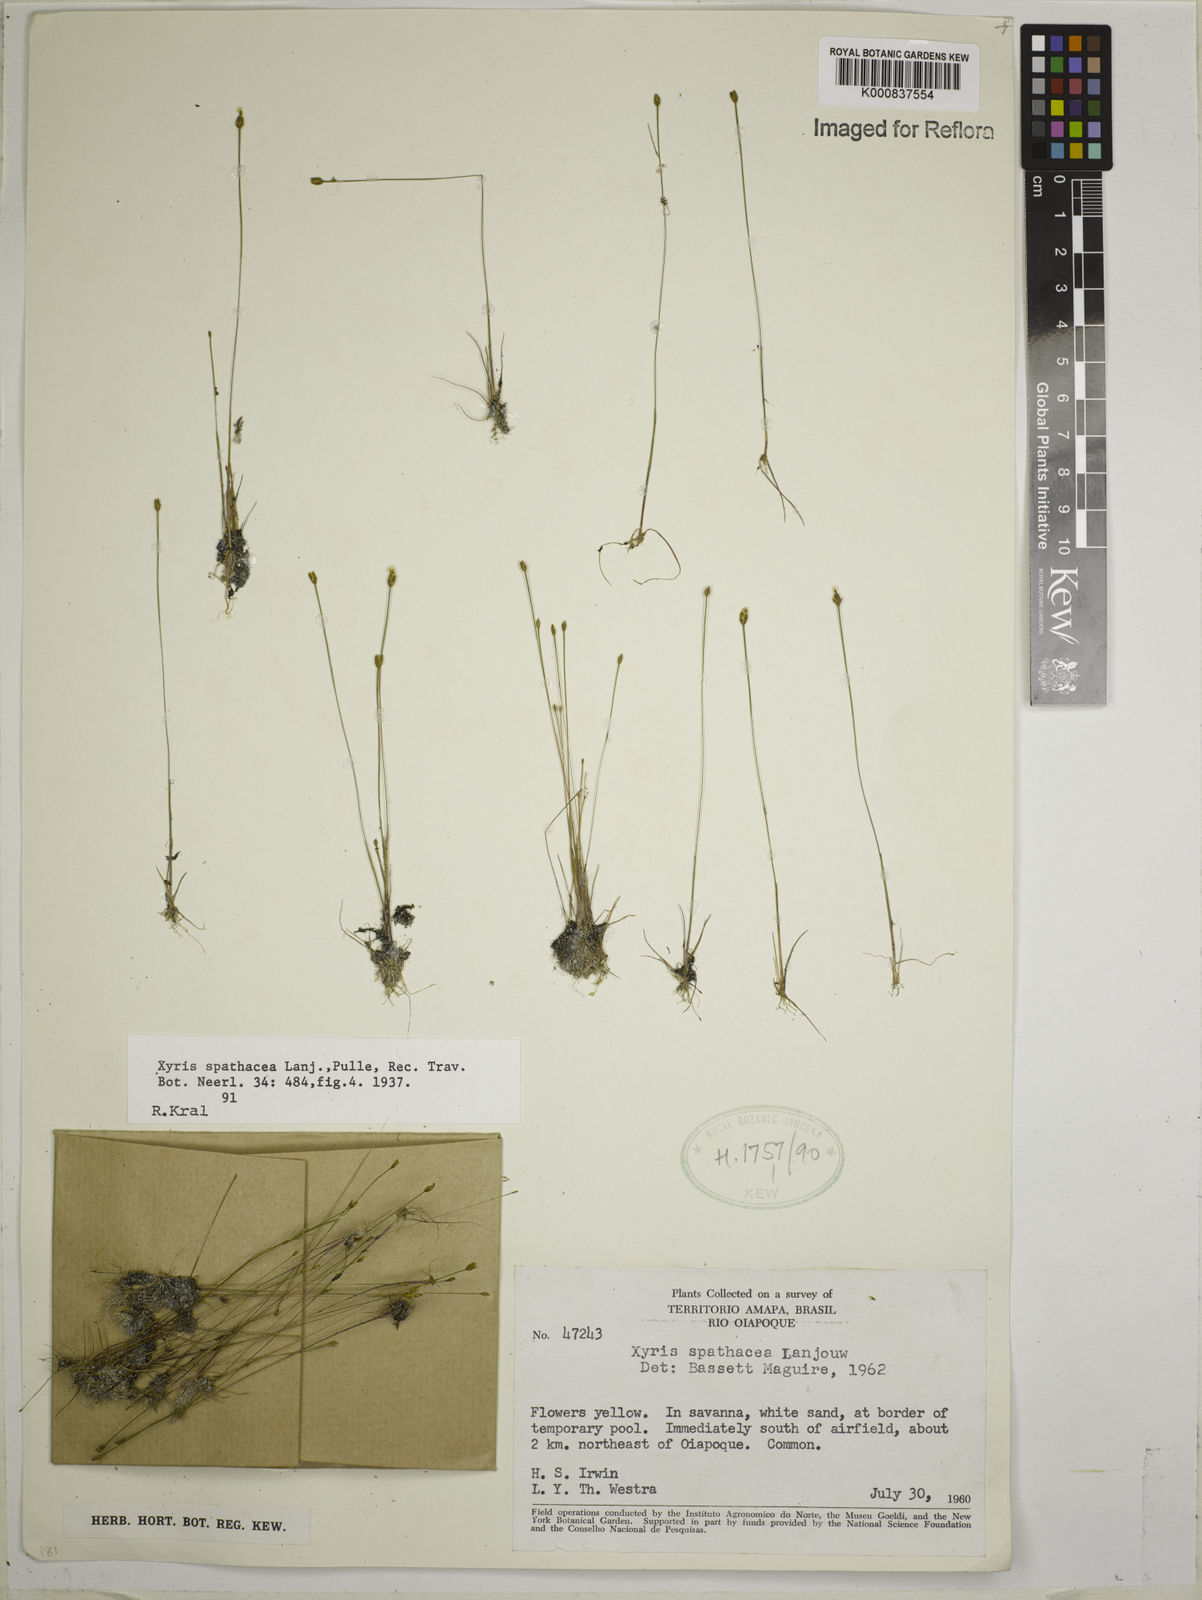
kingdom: Plantae
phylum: Tracheophyta
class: Liliopsida
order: Poales
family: Xyridaceae
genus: Xyris
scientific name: Xyris spathacea
